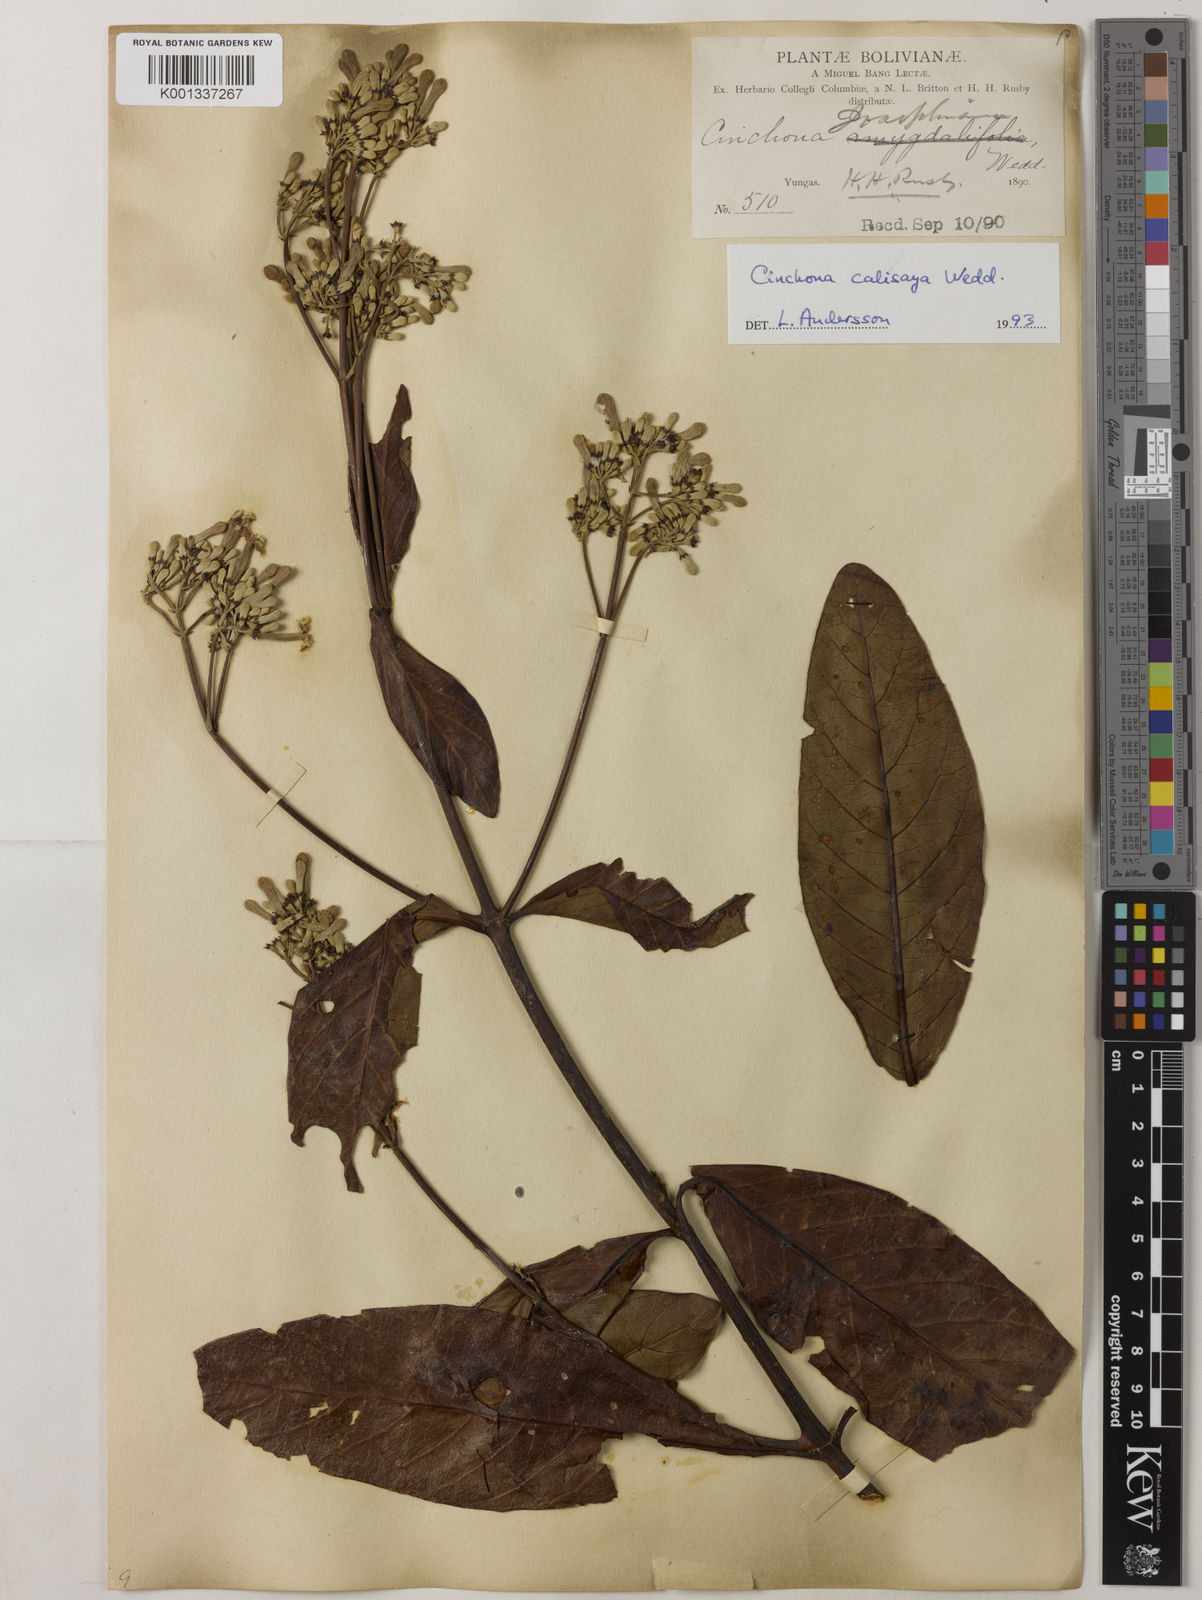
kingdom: Plantae
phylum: Tracheophyta
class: Magnoliopsida
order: Gentianales
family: Rubiaceae
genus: Cinchona
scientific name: Cinchona calisaya
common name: Ledgerbark
